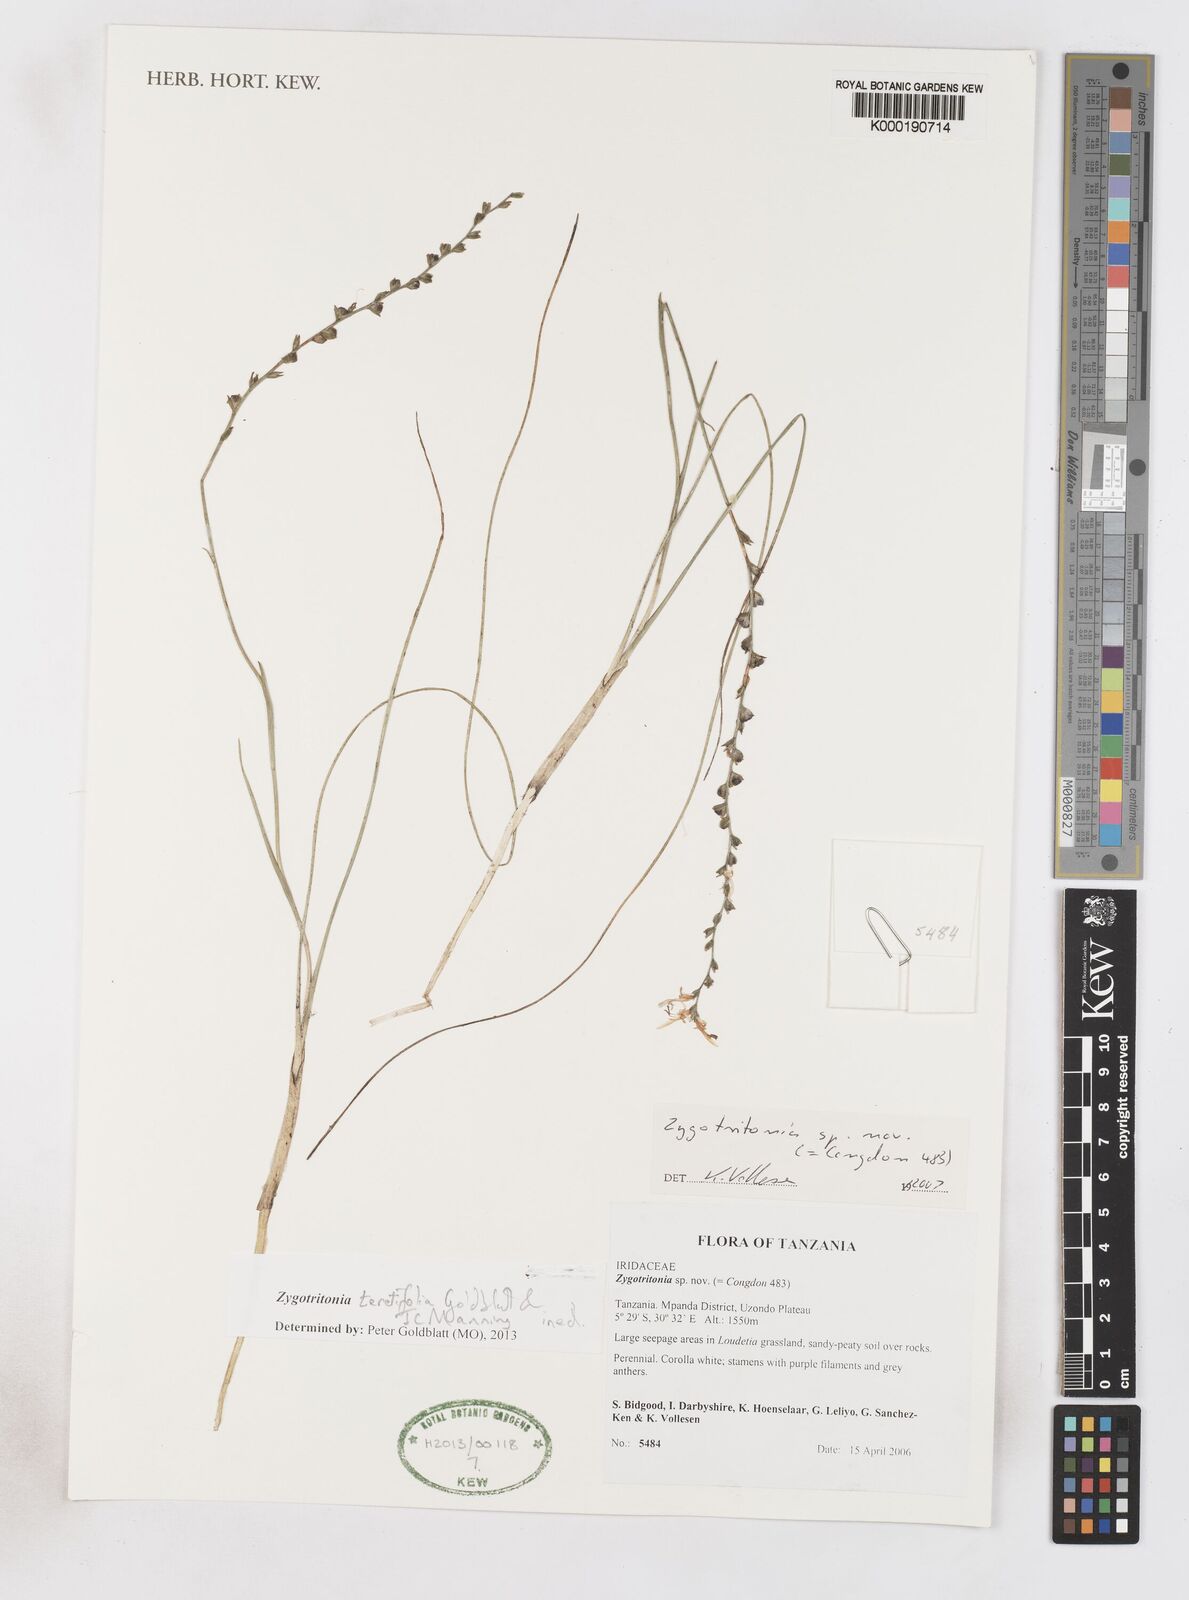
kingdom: Plantae
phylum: Tracheophyta
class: Liliopsida
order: Asparagales
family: Iridaceae
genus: Zygotritonia
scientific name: Zygotritonia
